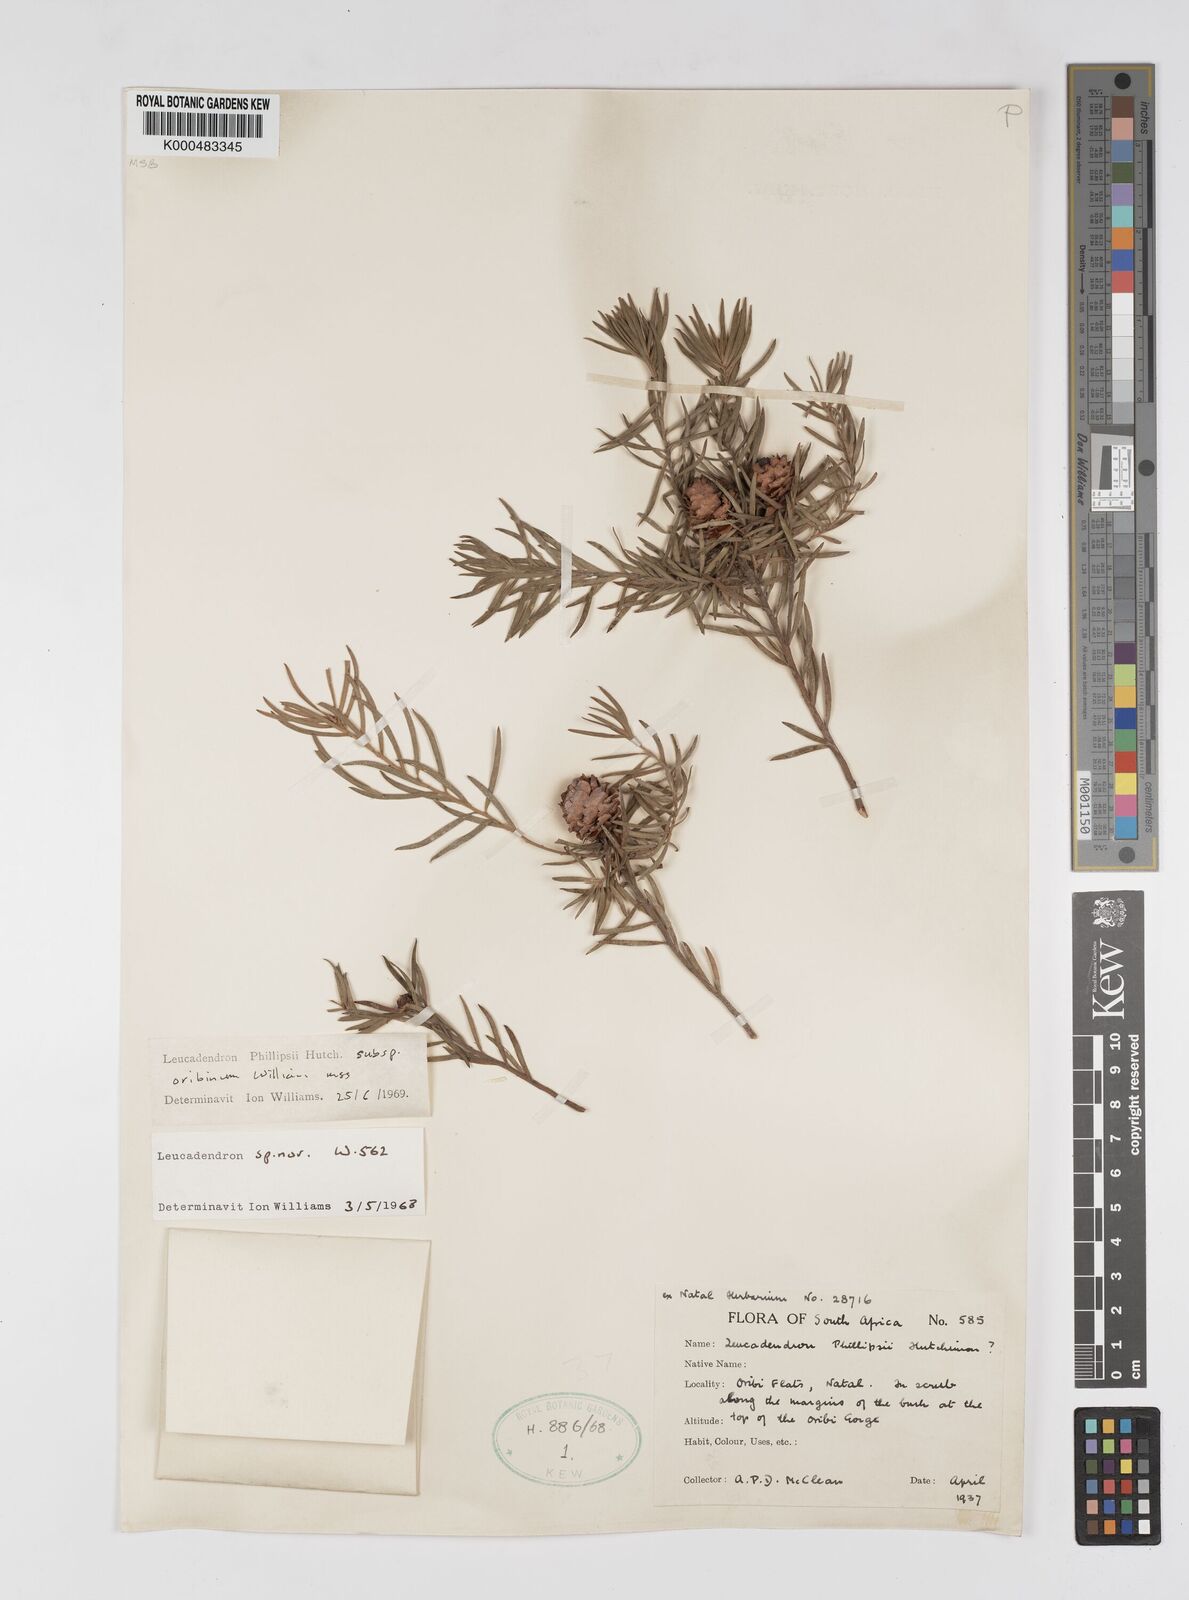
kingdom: Plantae
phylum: Tracheophyta
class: Magnoliopsida
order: Proteales
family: Proteaceae
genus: Leucadendron
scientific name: Leucadendron spissifolium
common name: Spear-leaf conebush
